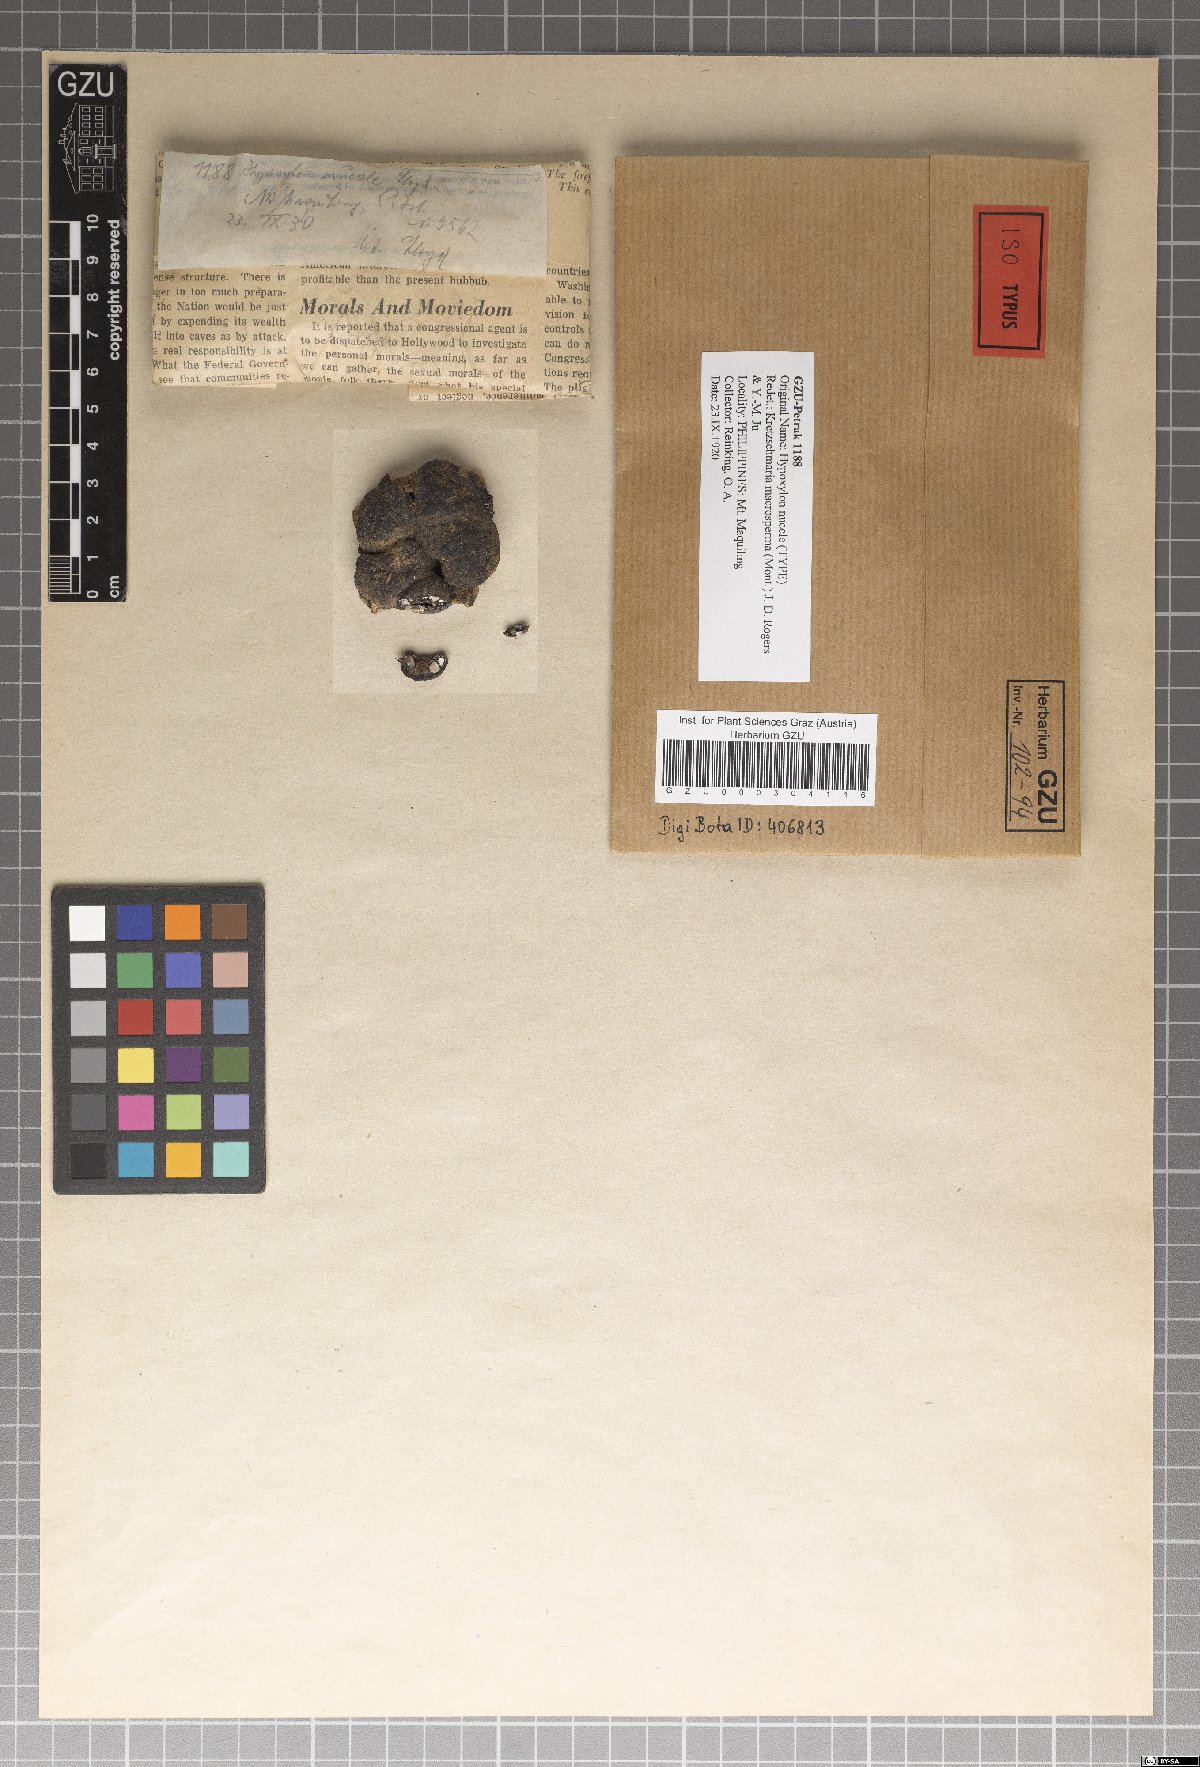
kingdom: Fungi
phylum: Ascomycota
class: Sordariomycetes
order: Xylariales
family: Xylariaceae
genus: Kretzschmaria
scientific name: Kretzschmaria macrosperma
